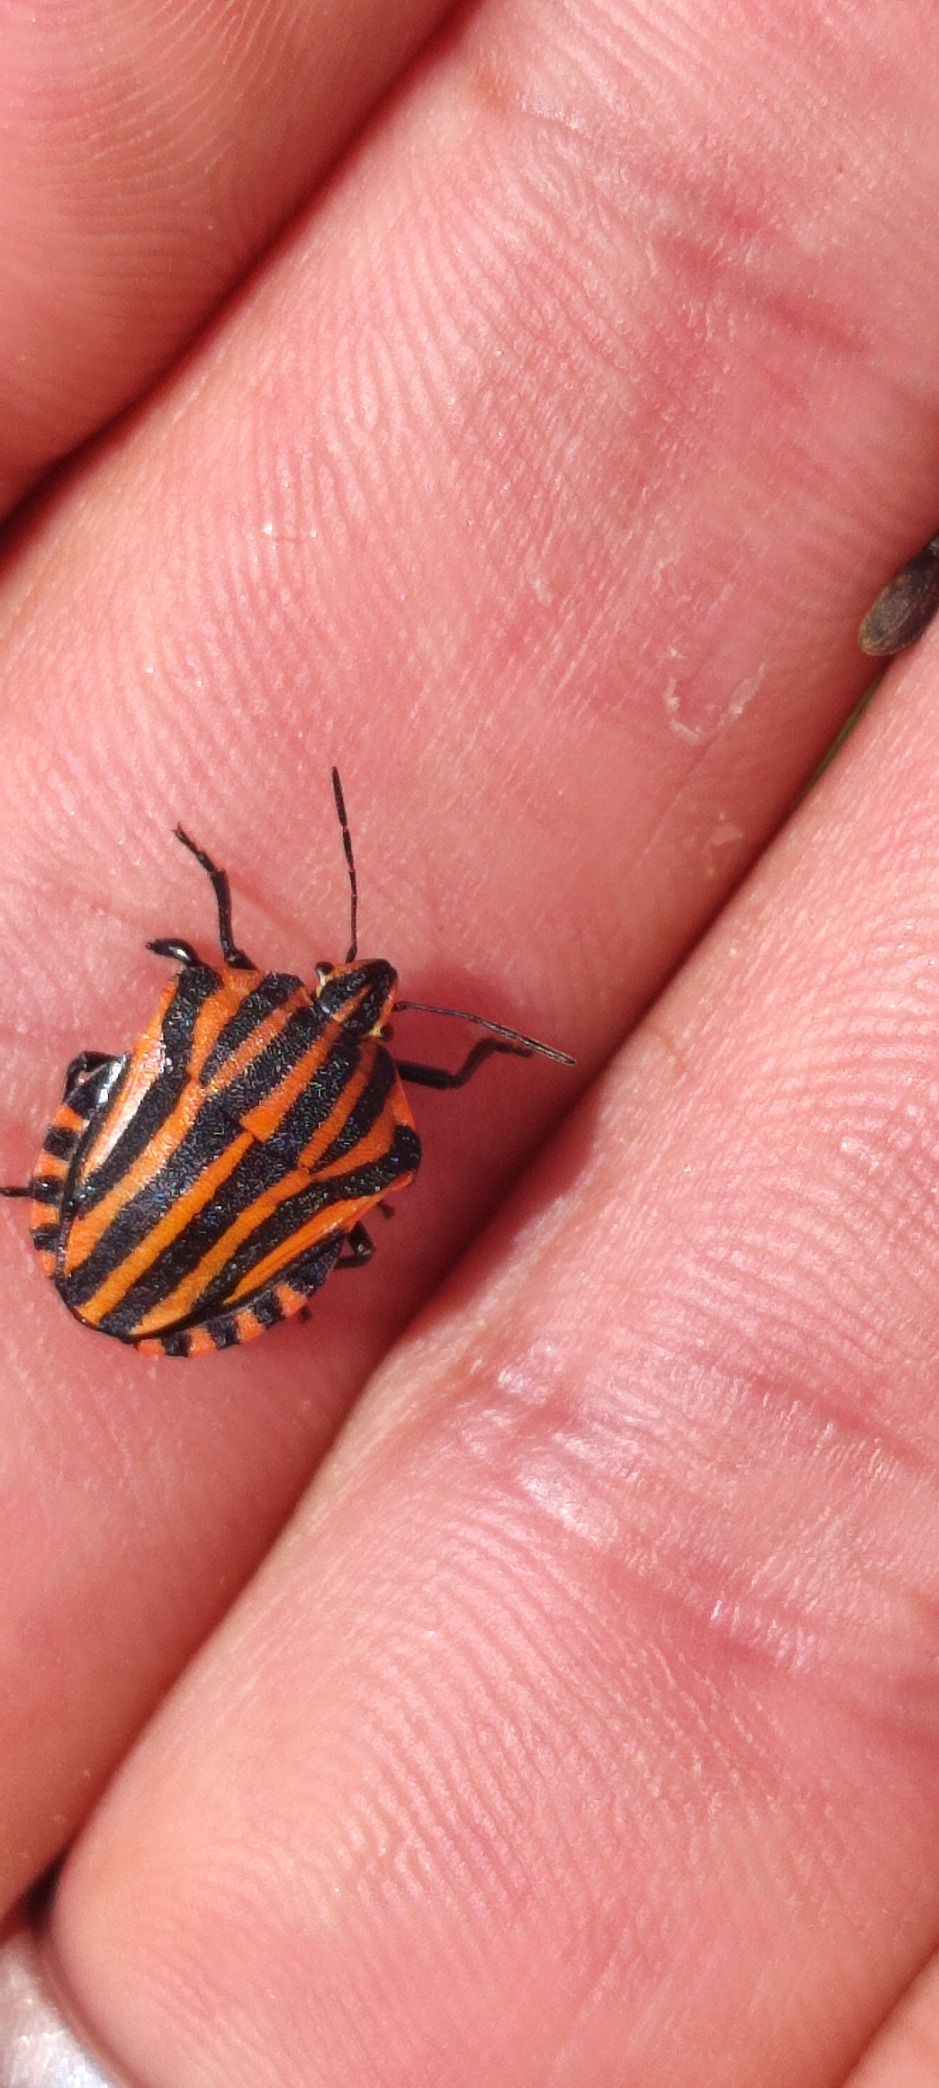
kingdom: Animalia
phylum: Arthropoda
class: Insecta
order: Hemiptera
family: Pentatomidae
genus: Graphosoma
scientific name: Graphosoma italicum
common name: Stribetæge
